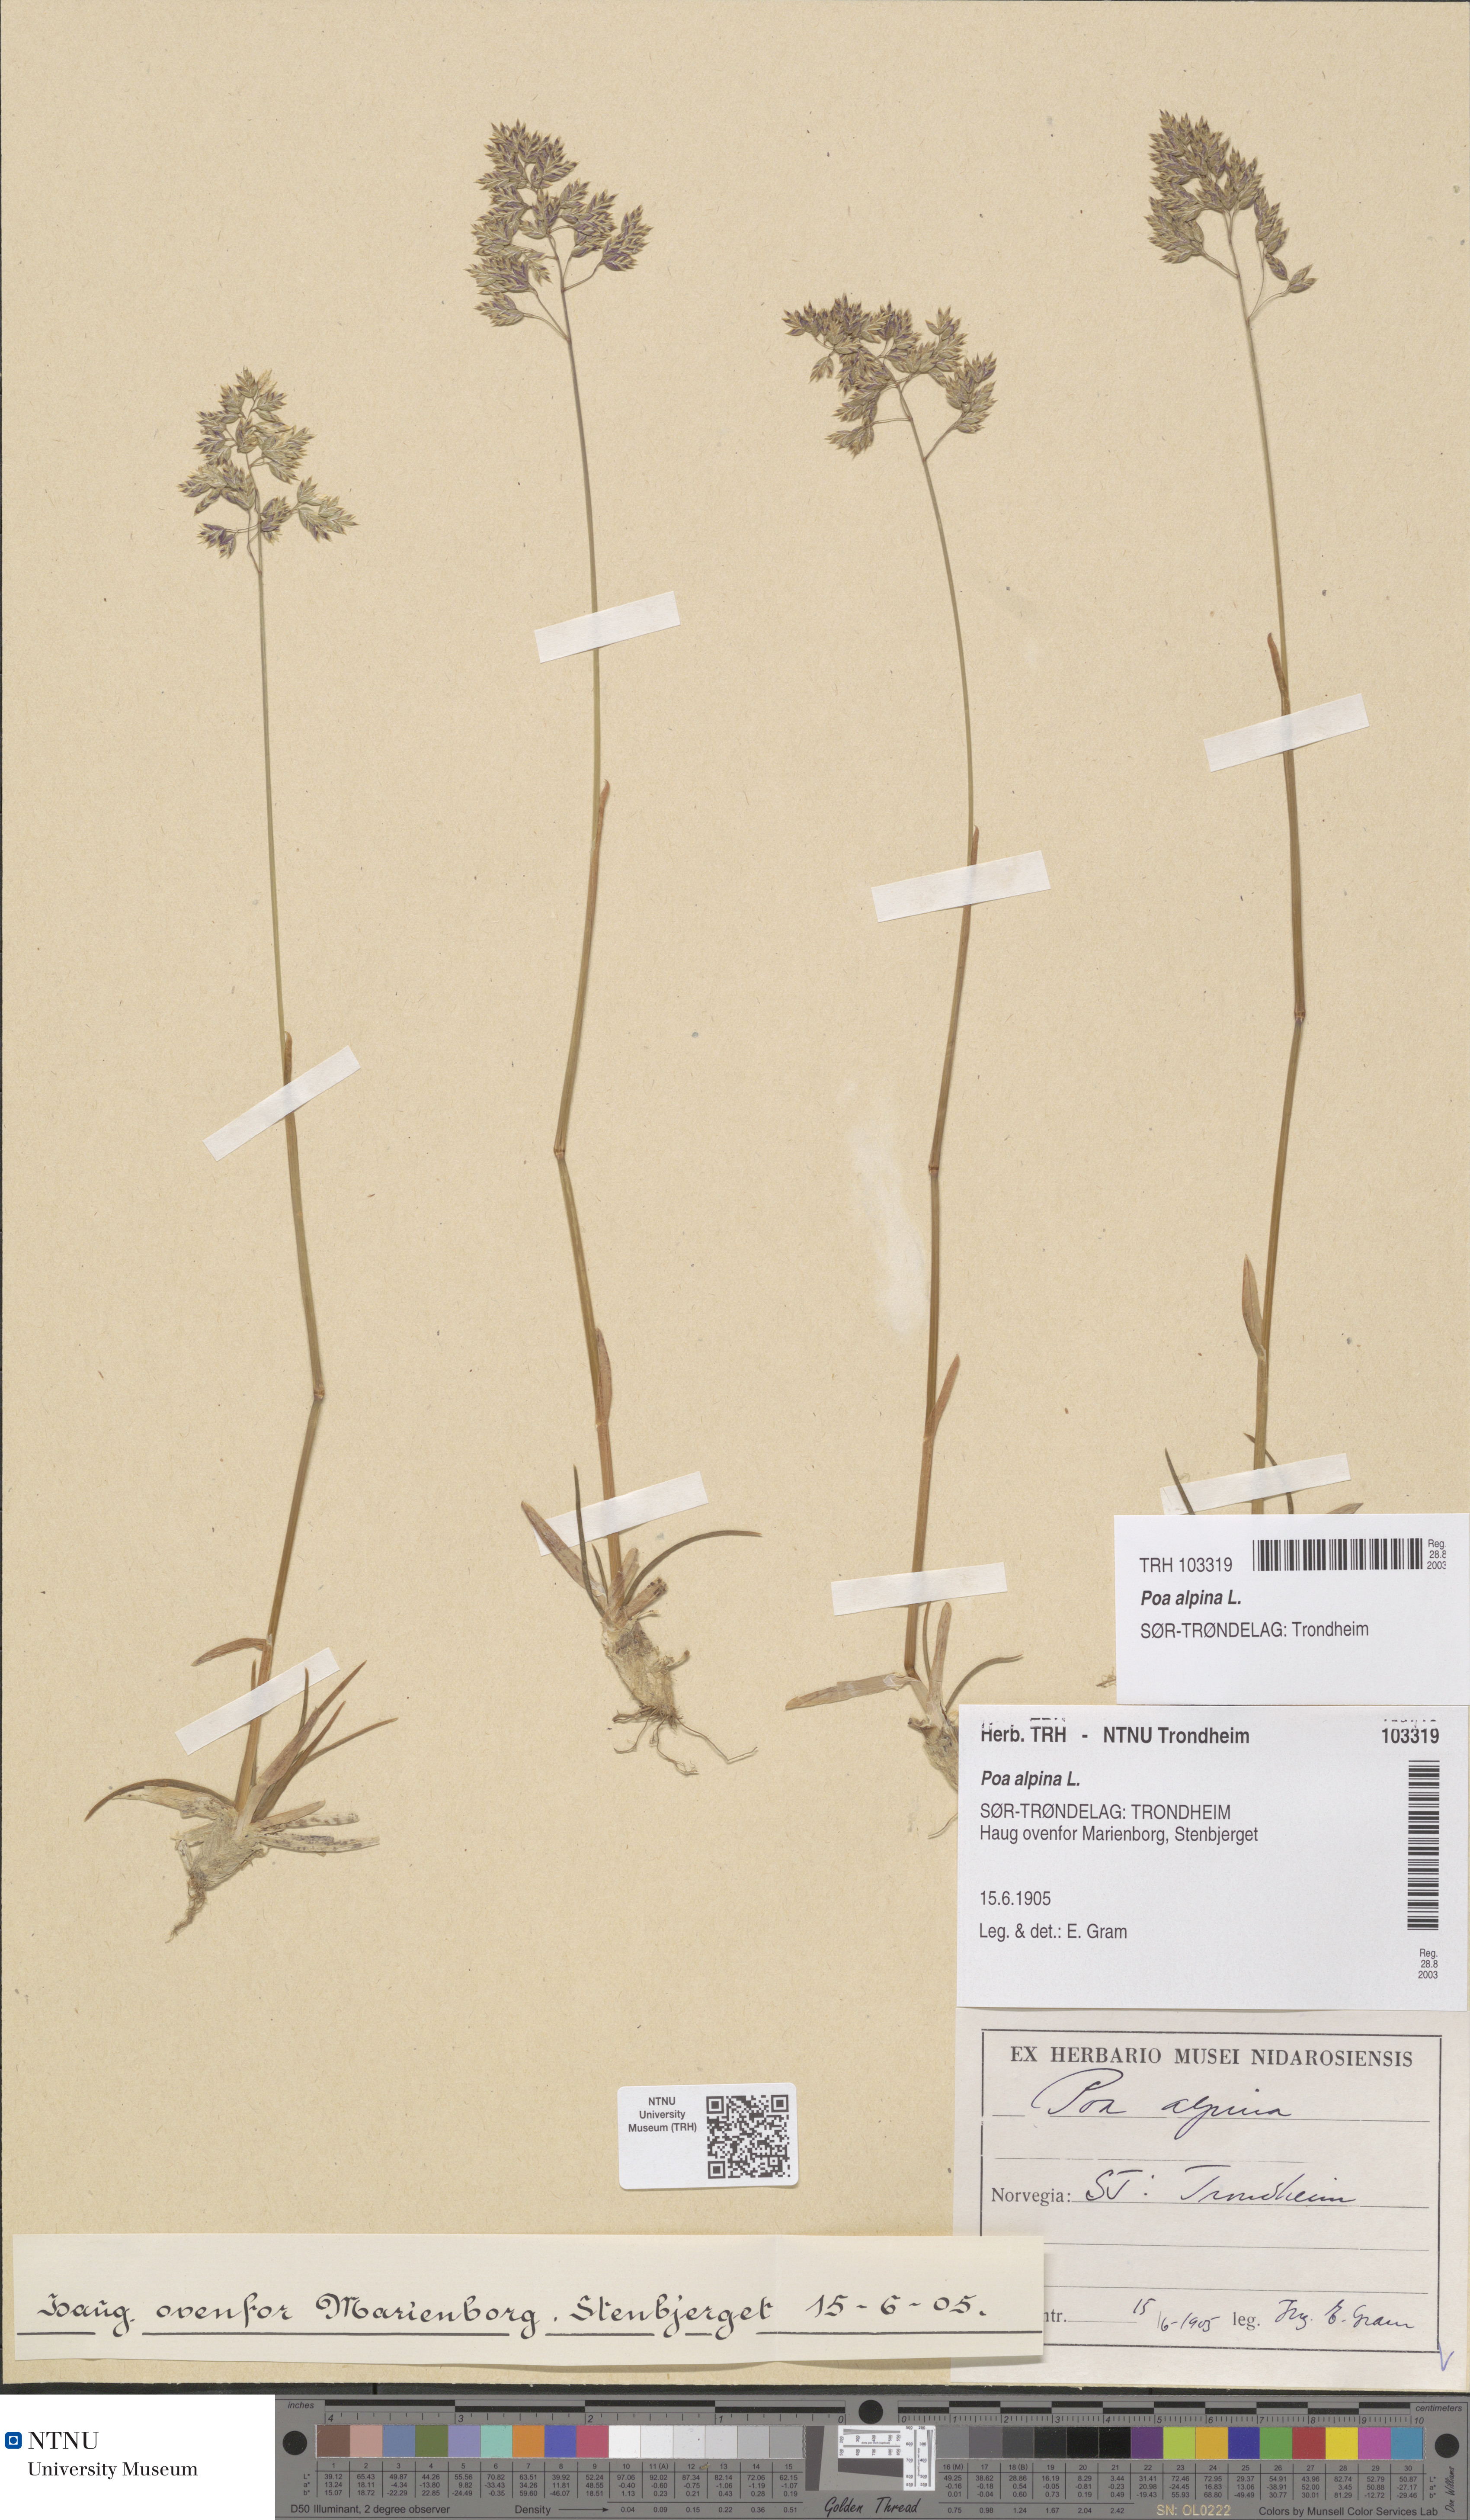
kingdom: Plantae
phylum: Tracheophyta
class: Liliopsida
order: Poales
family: Poaceae
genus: Poa
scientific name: Poa alpina
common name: Alpine bluegrass
